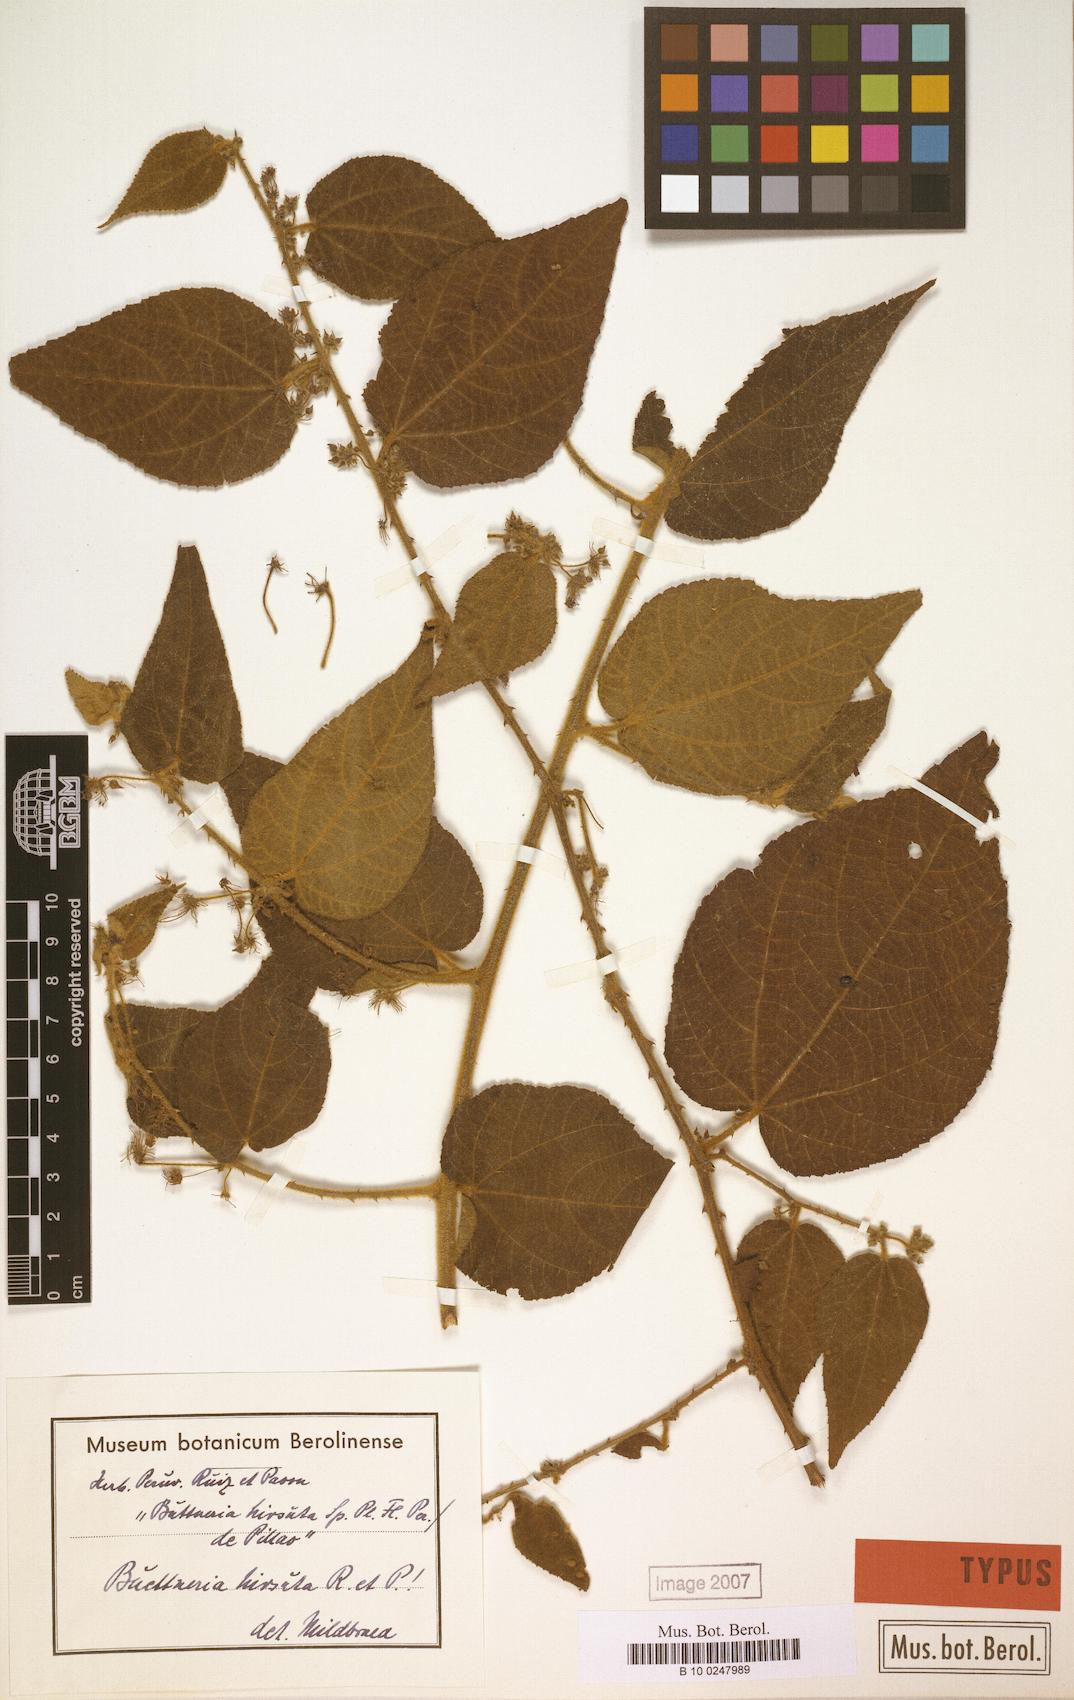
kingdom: Plantae
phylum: Tracheophyta
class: Magnoliopsida
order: Malvales
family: Malvaceae
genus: Byttneria
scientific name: Byttneria hirsuta
